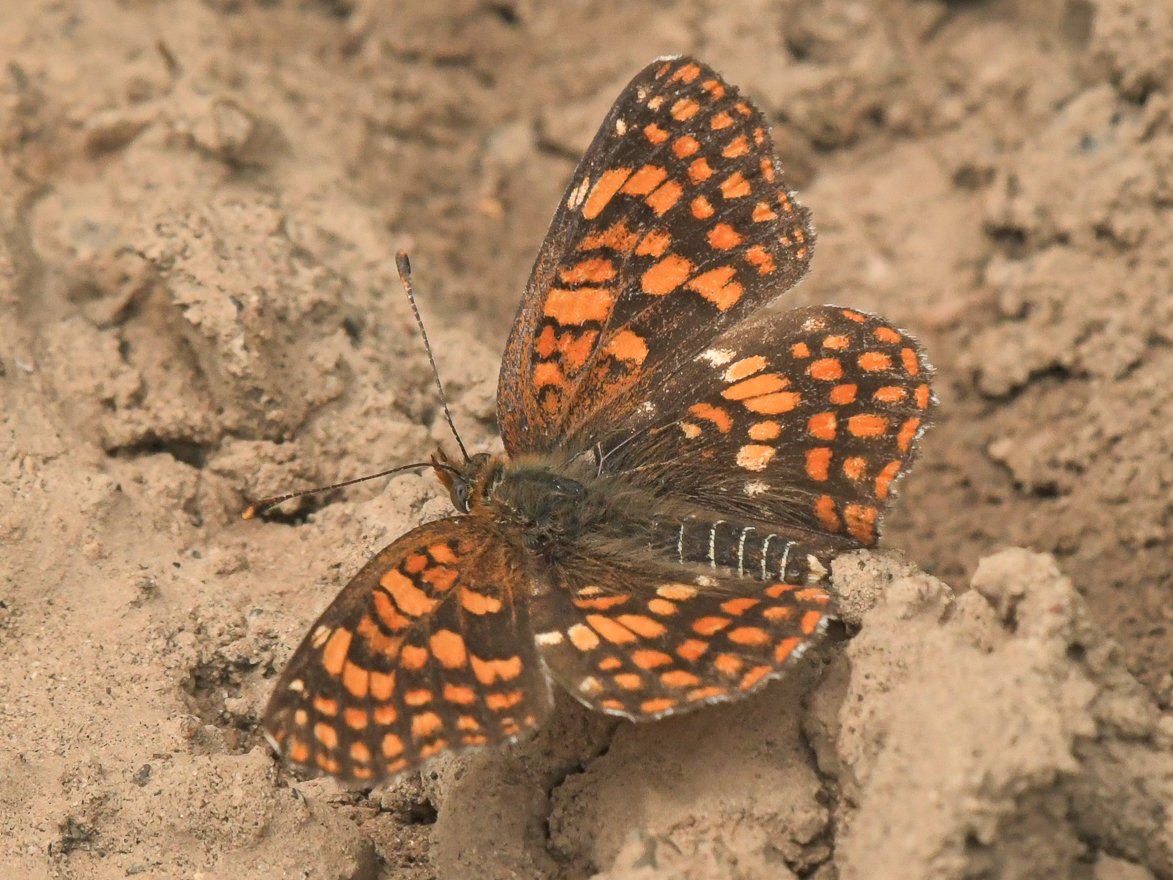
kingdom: Animalia
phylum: Arthropoda
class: Insecta
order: Lepidoptera
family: Nymphalidae
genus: Chlosyne
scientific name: Chlosyne palla
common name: Northern Checkerspot
